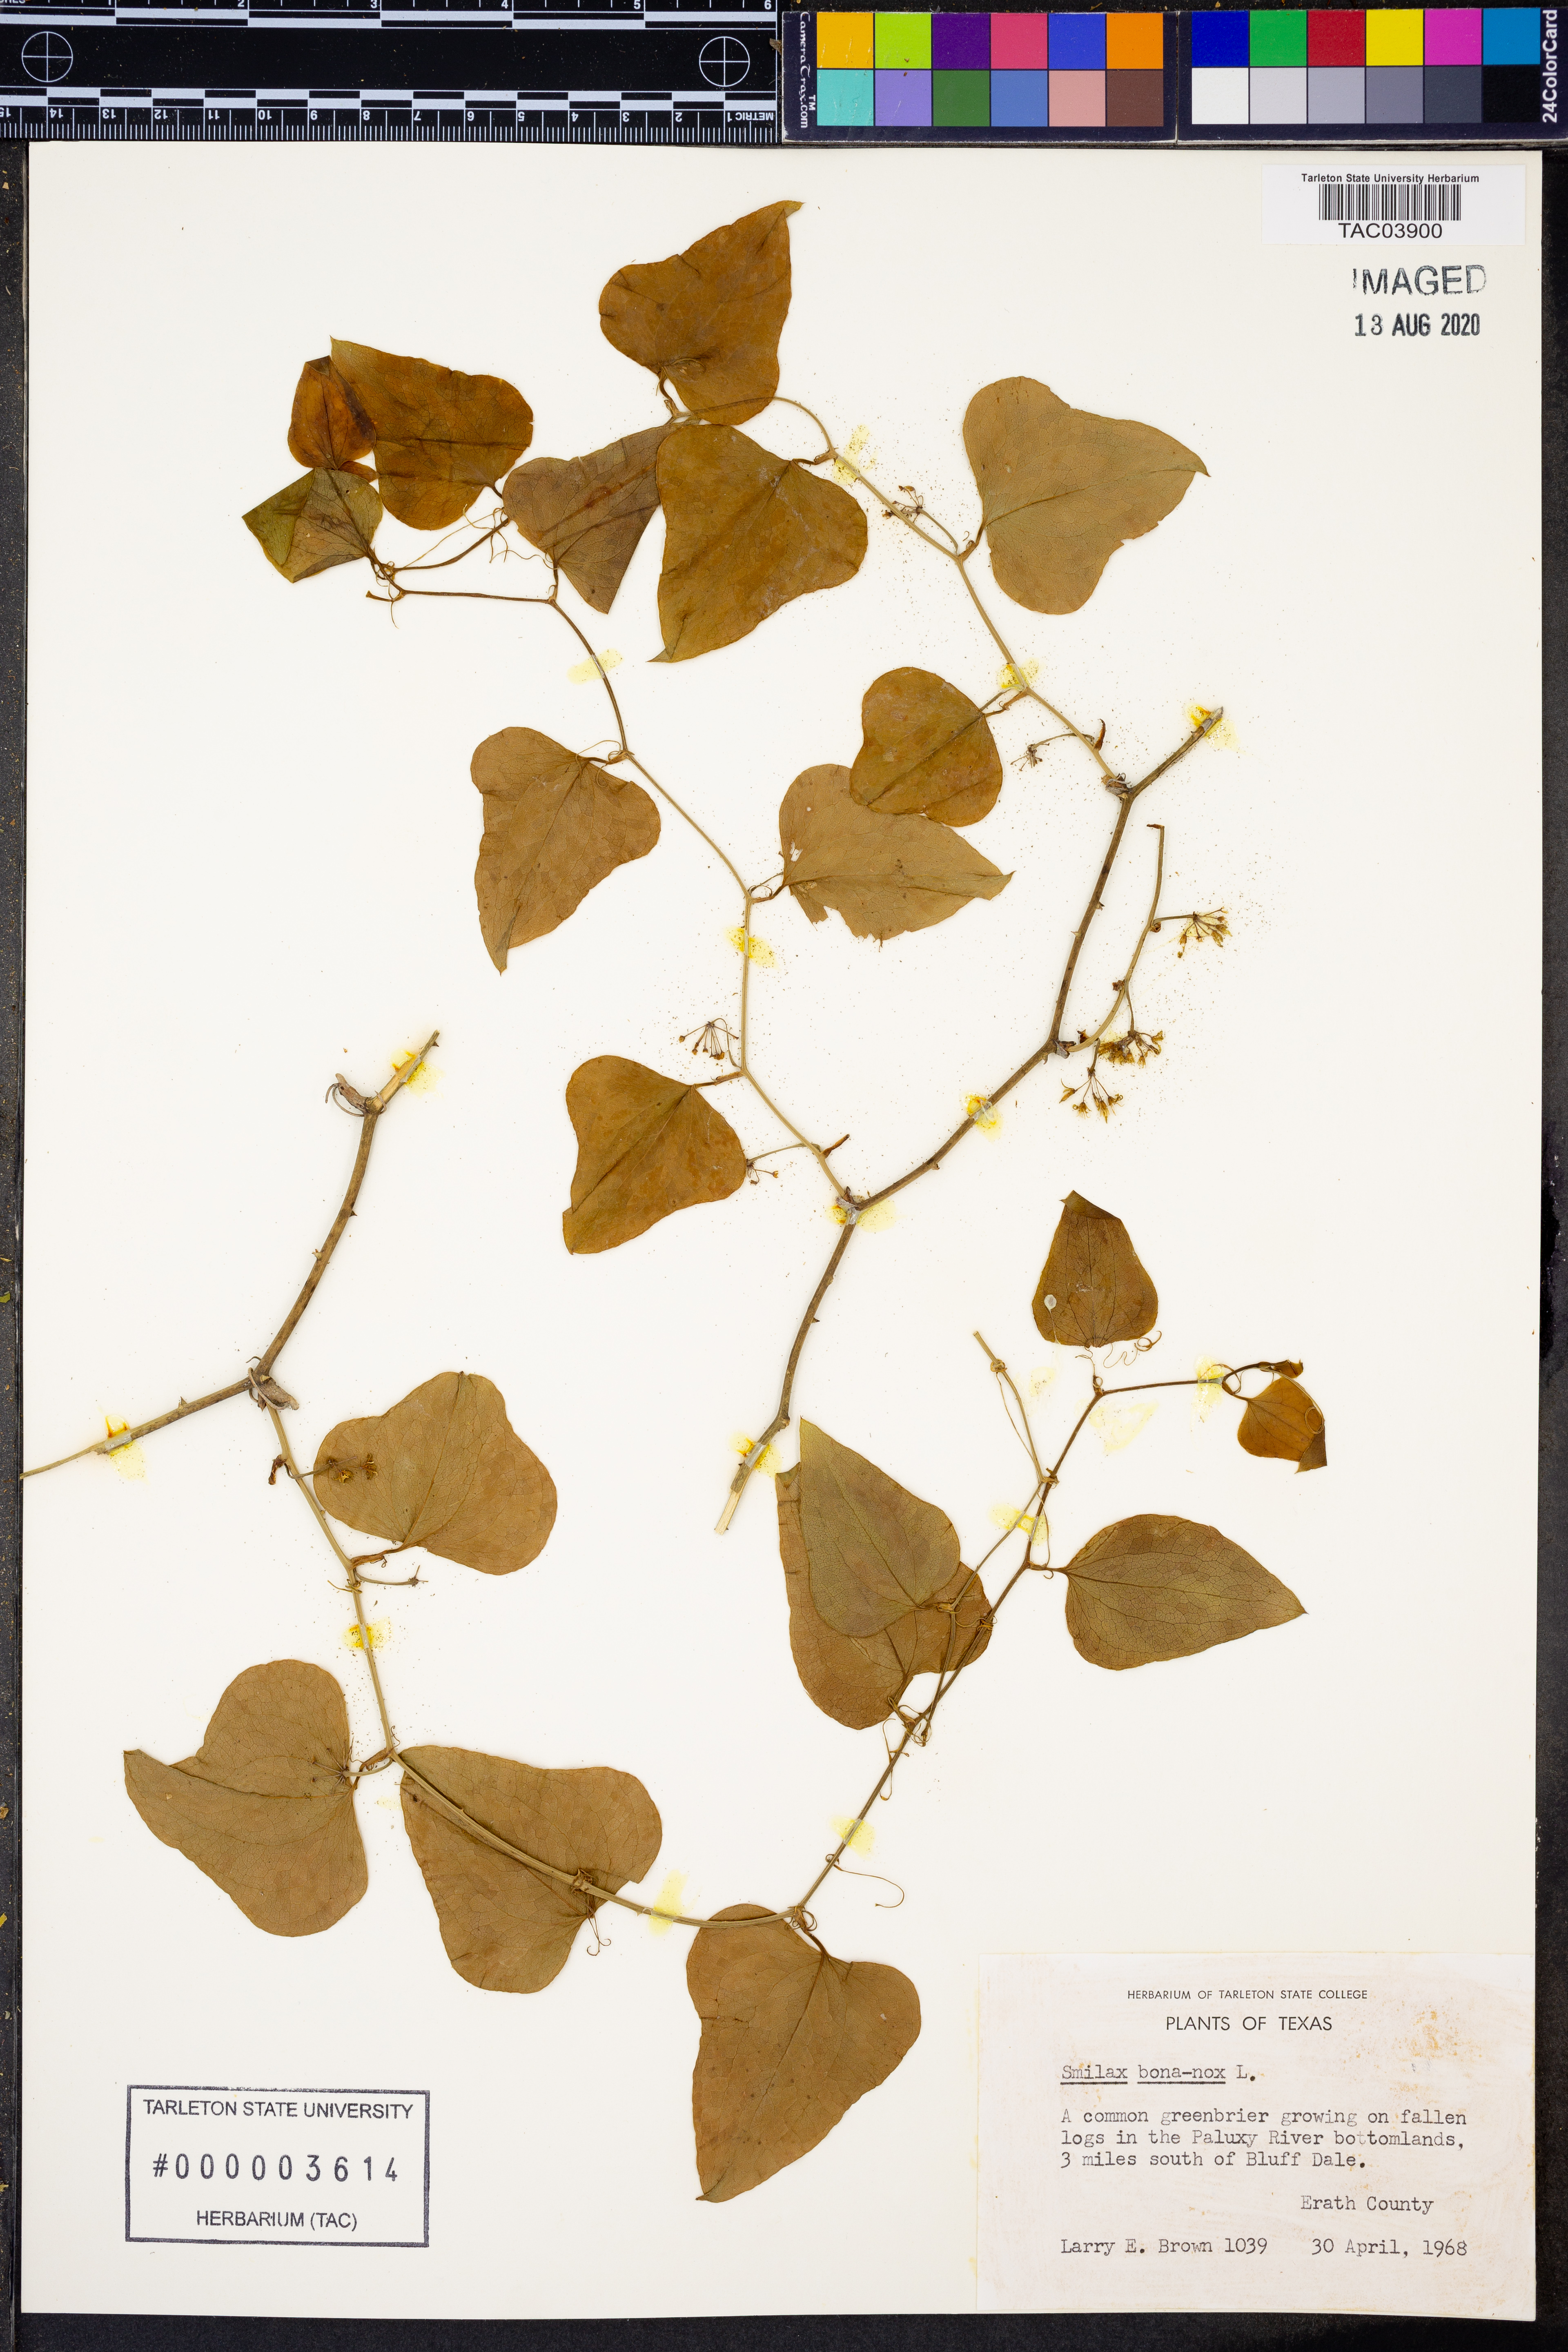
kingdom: Plantae
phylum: Tracheophyta
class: Liliopsida
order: Liliales
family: Smilacaceae
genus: Smilax
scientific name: Smilax bona-nox
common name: Catbrier
